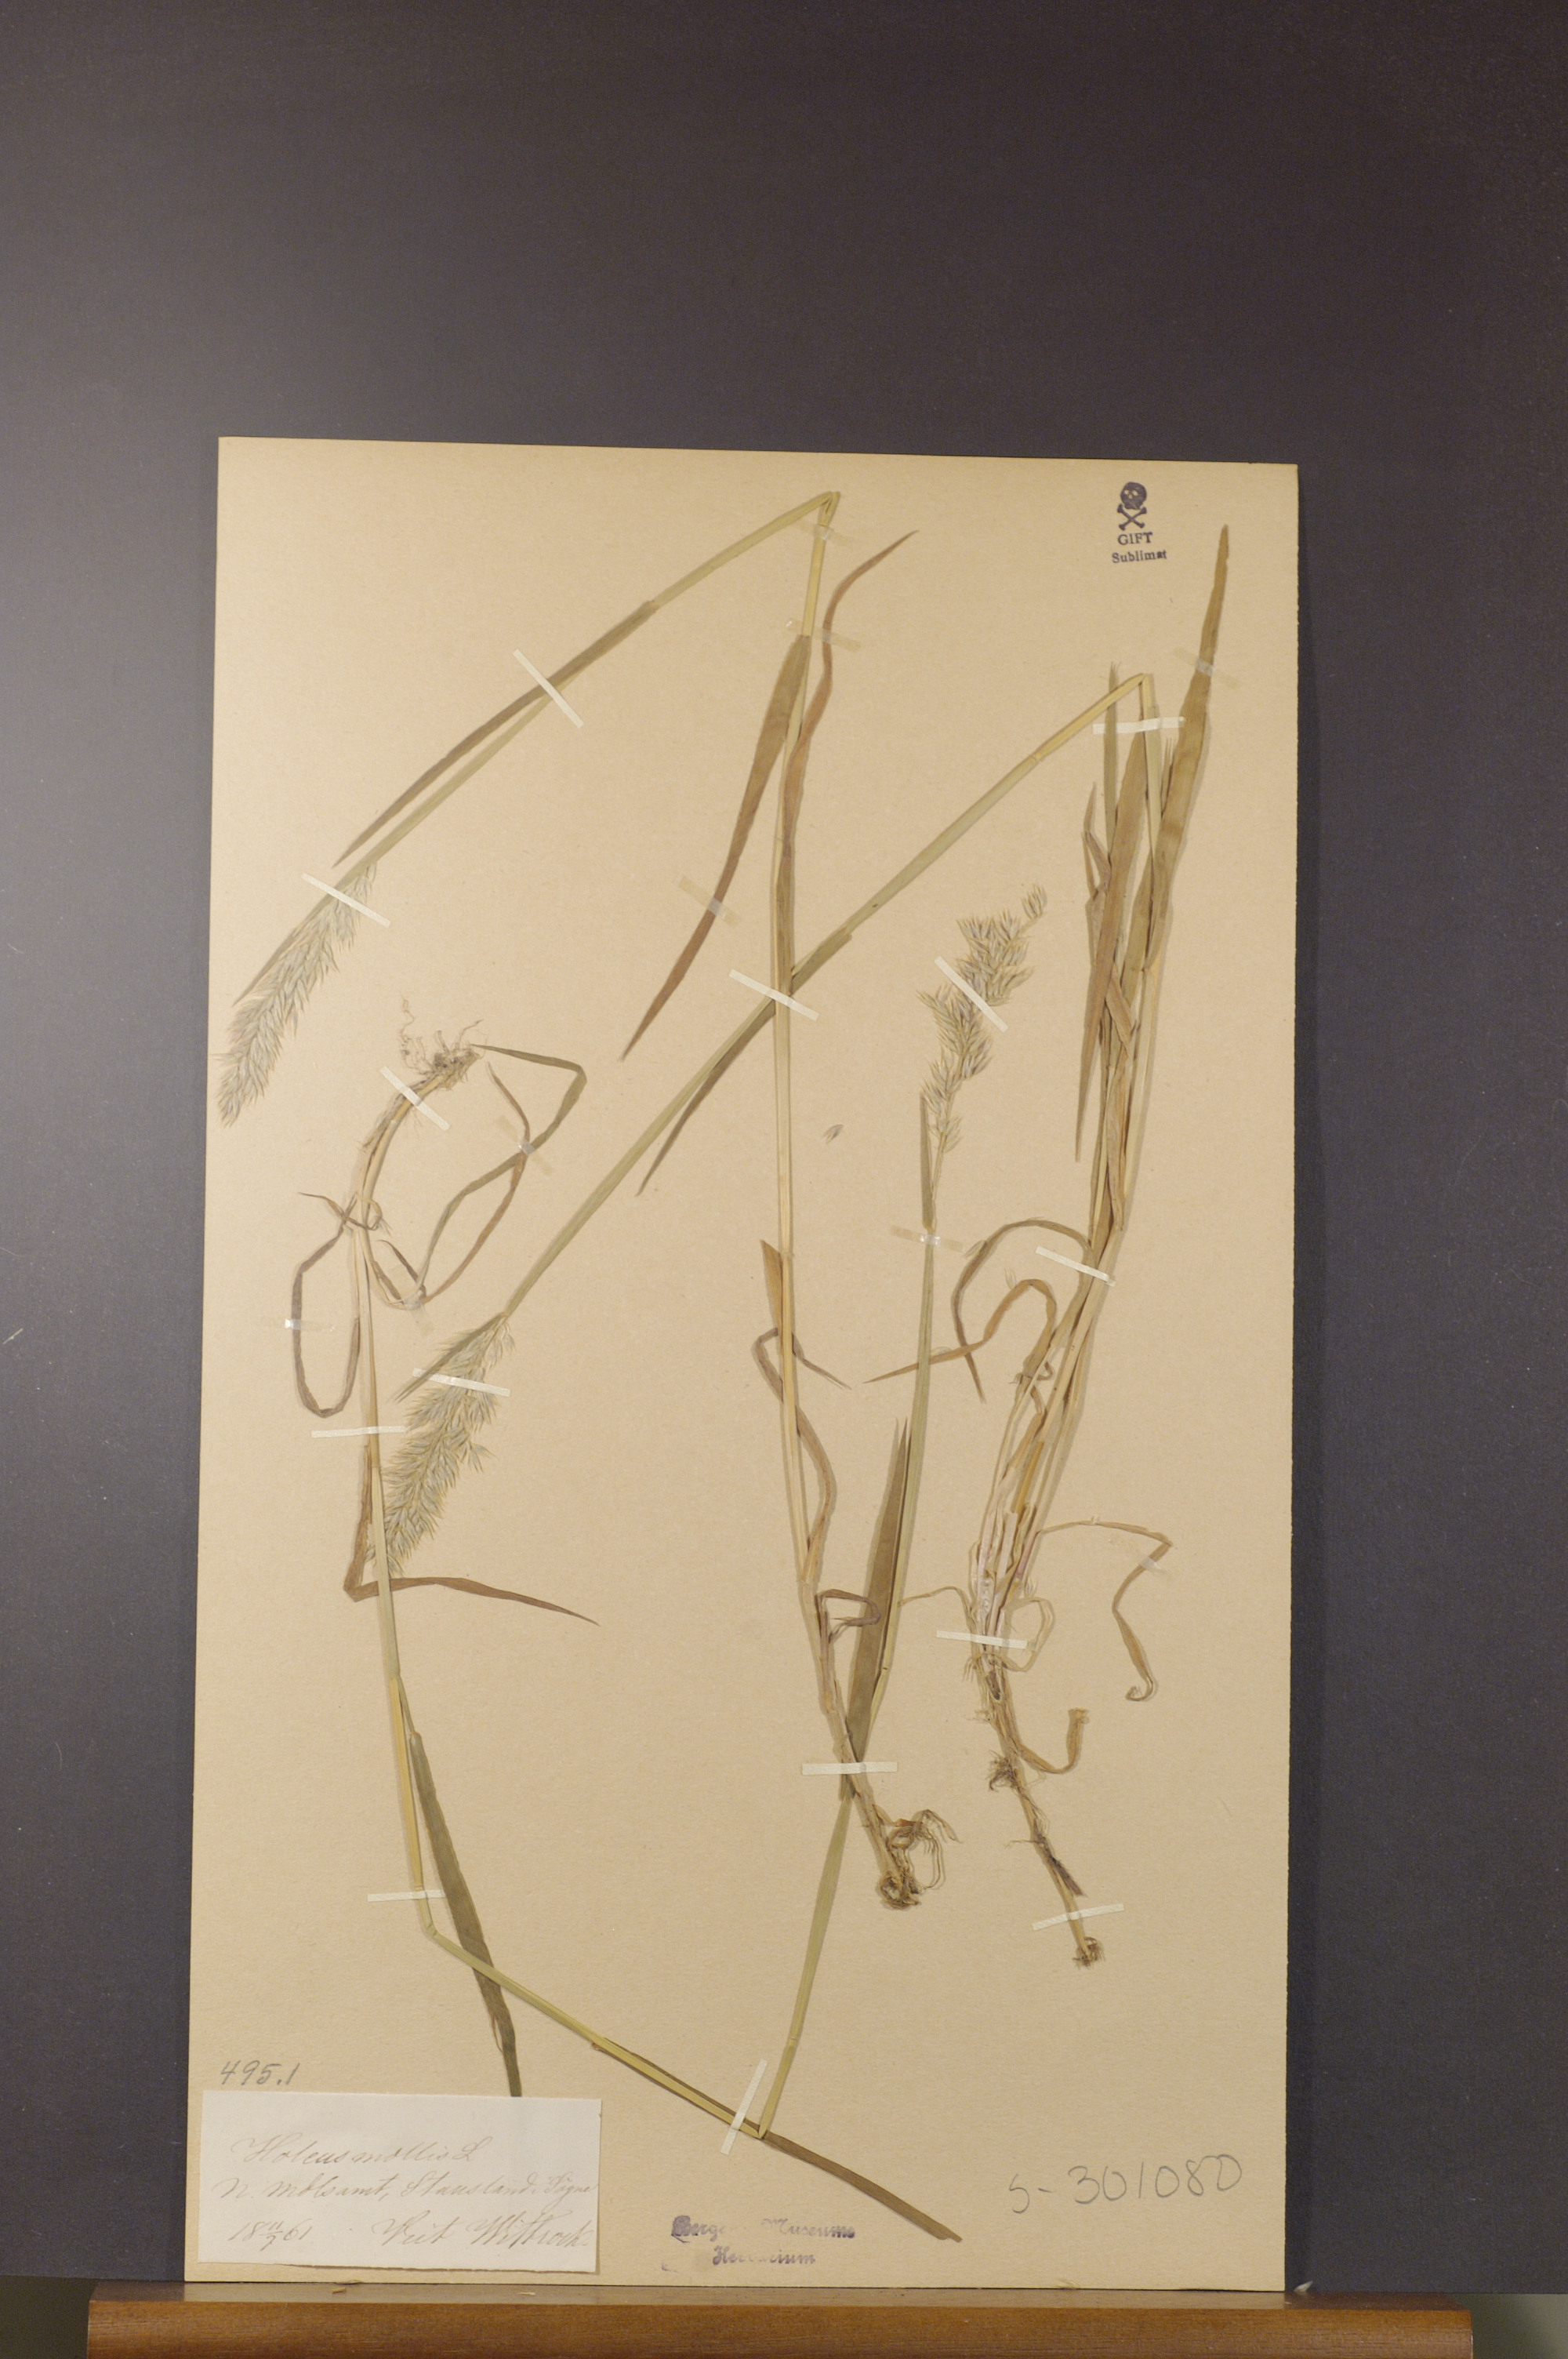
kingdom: Plantae
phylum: Tracheophyta
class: Liliopsida
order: Poales
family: Poaceae
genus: Holcus
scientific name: Holcus mollis
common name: Creeping velvetgrass
